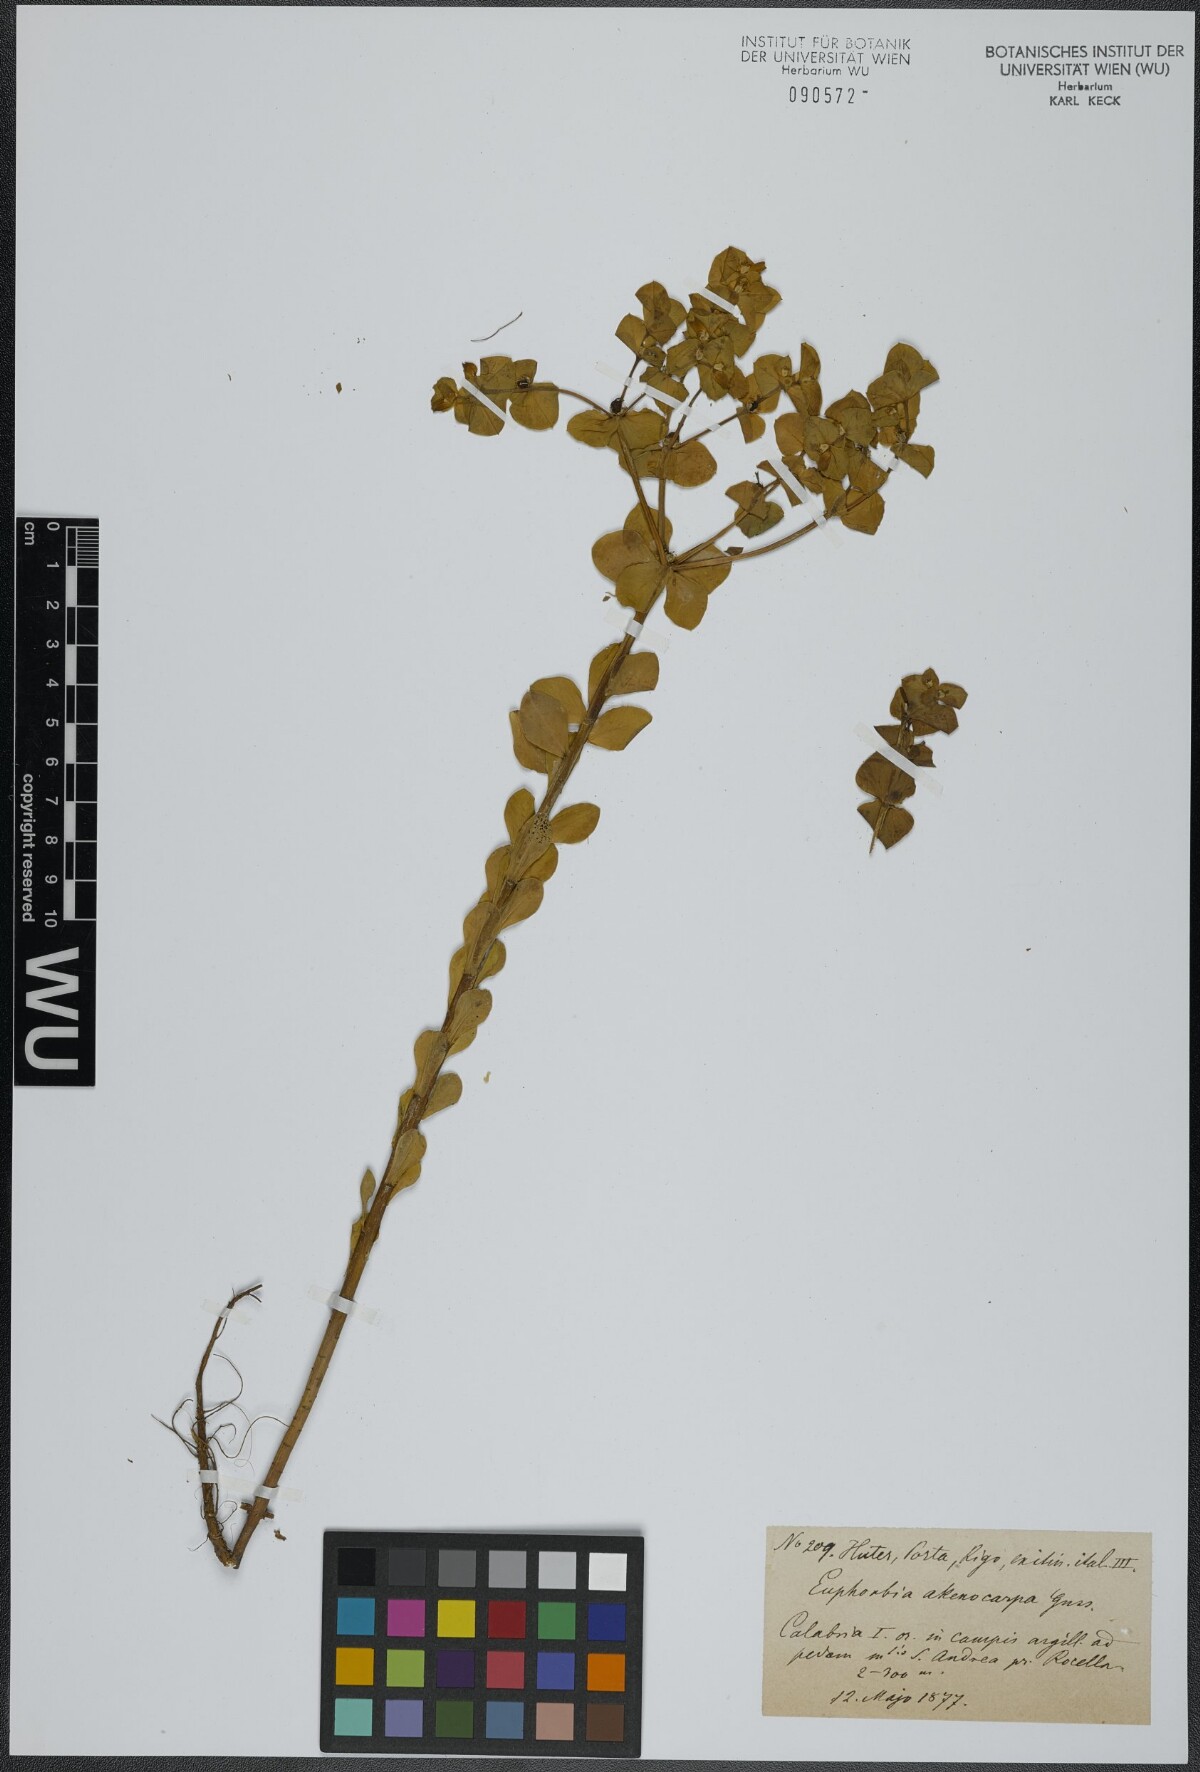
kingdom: Plantae
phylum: Tracheophyta
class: Magnoliopsida
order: Malpighiales
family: Euphorbiaceae
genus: Euphorbia
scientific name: Euphorbia valerianifolia
